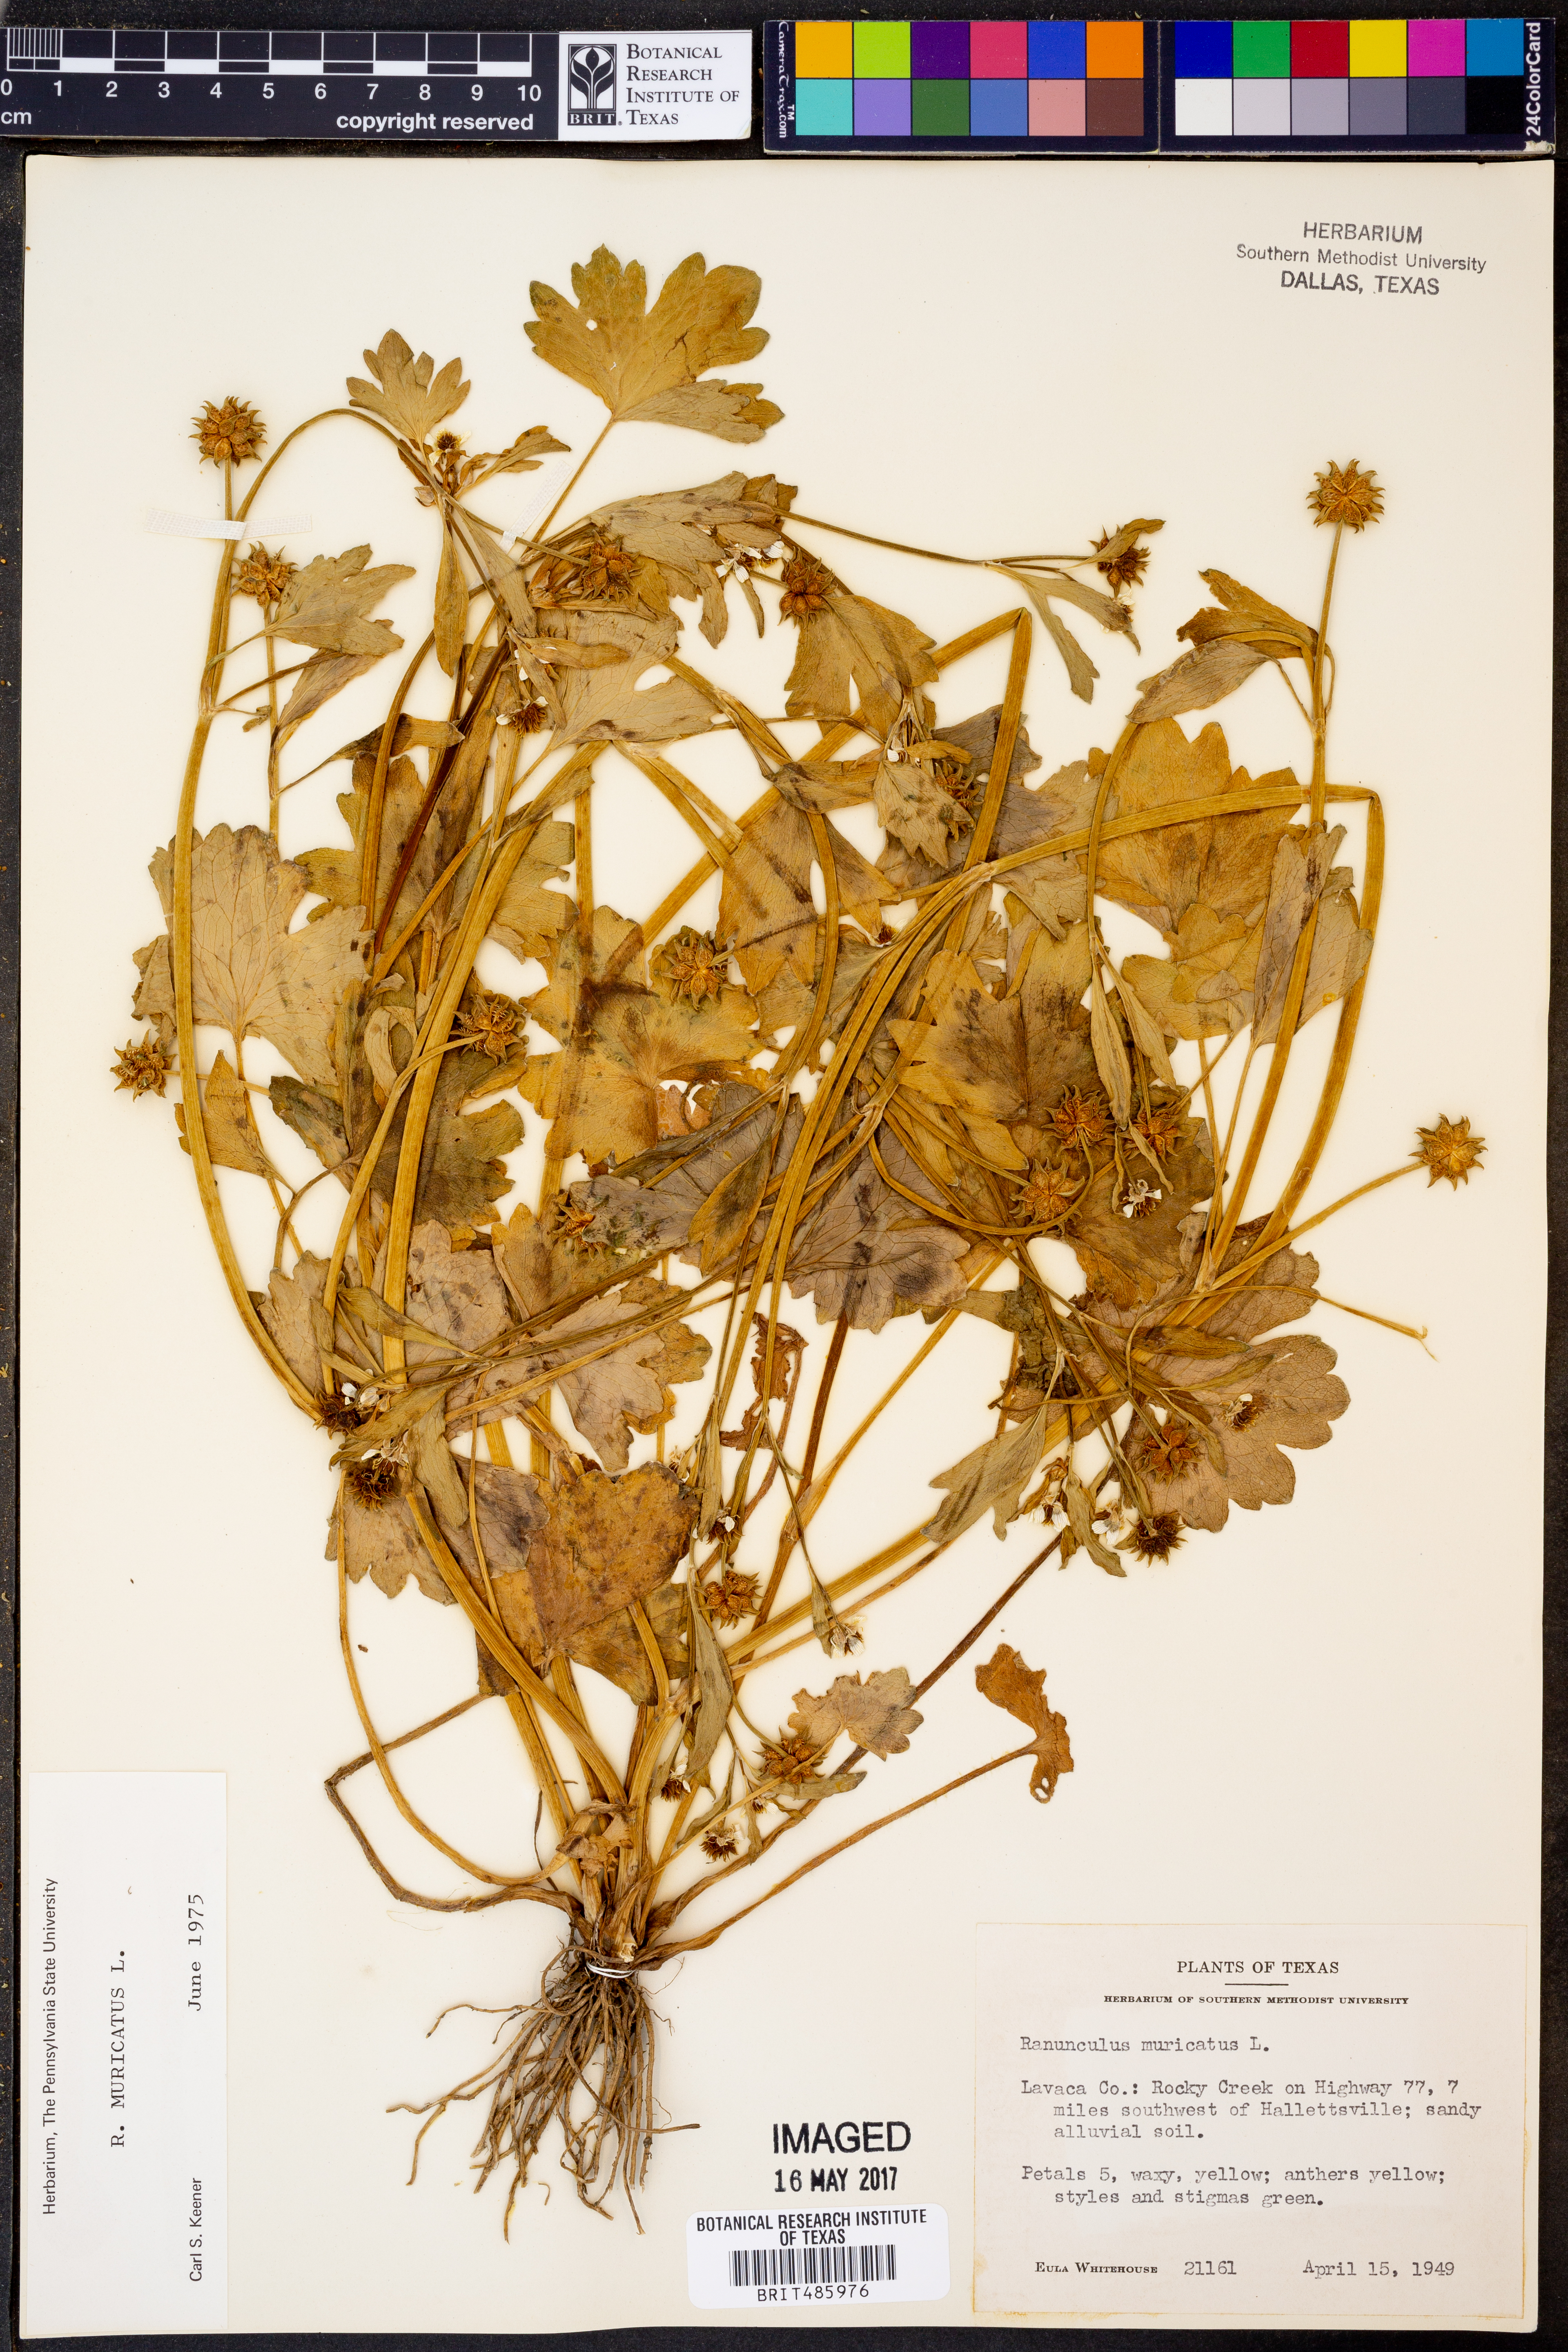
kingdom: Plantae
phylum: Tracheophyta
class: Magnoliopsida
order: Ranunculales
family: Ranunculaceae
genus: Ranunculus
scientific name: Ranunculus muricatus
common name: Rough-fruited buttercup
